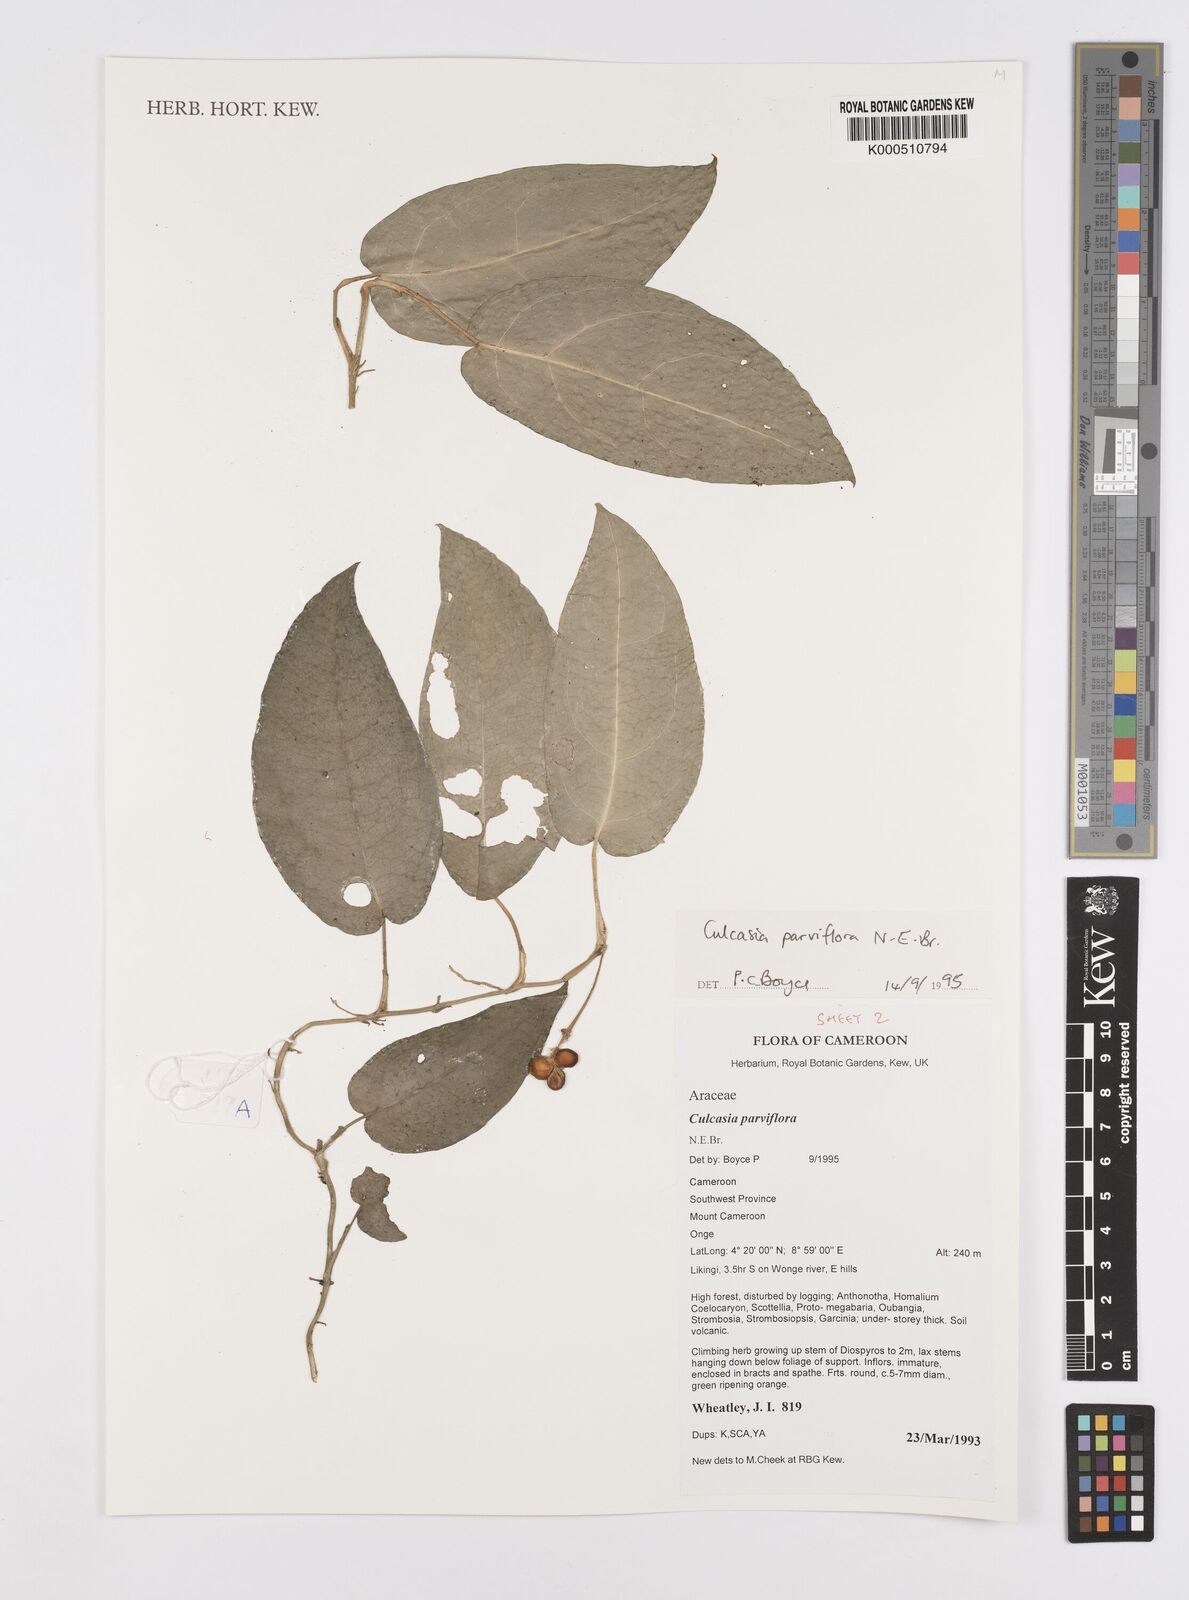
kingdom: Plantae
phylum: Tracheophyta
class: Liliopsida
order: Alismatales
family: Araceae
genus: Culcasia
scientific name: Culcasia parviflora
